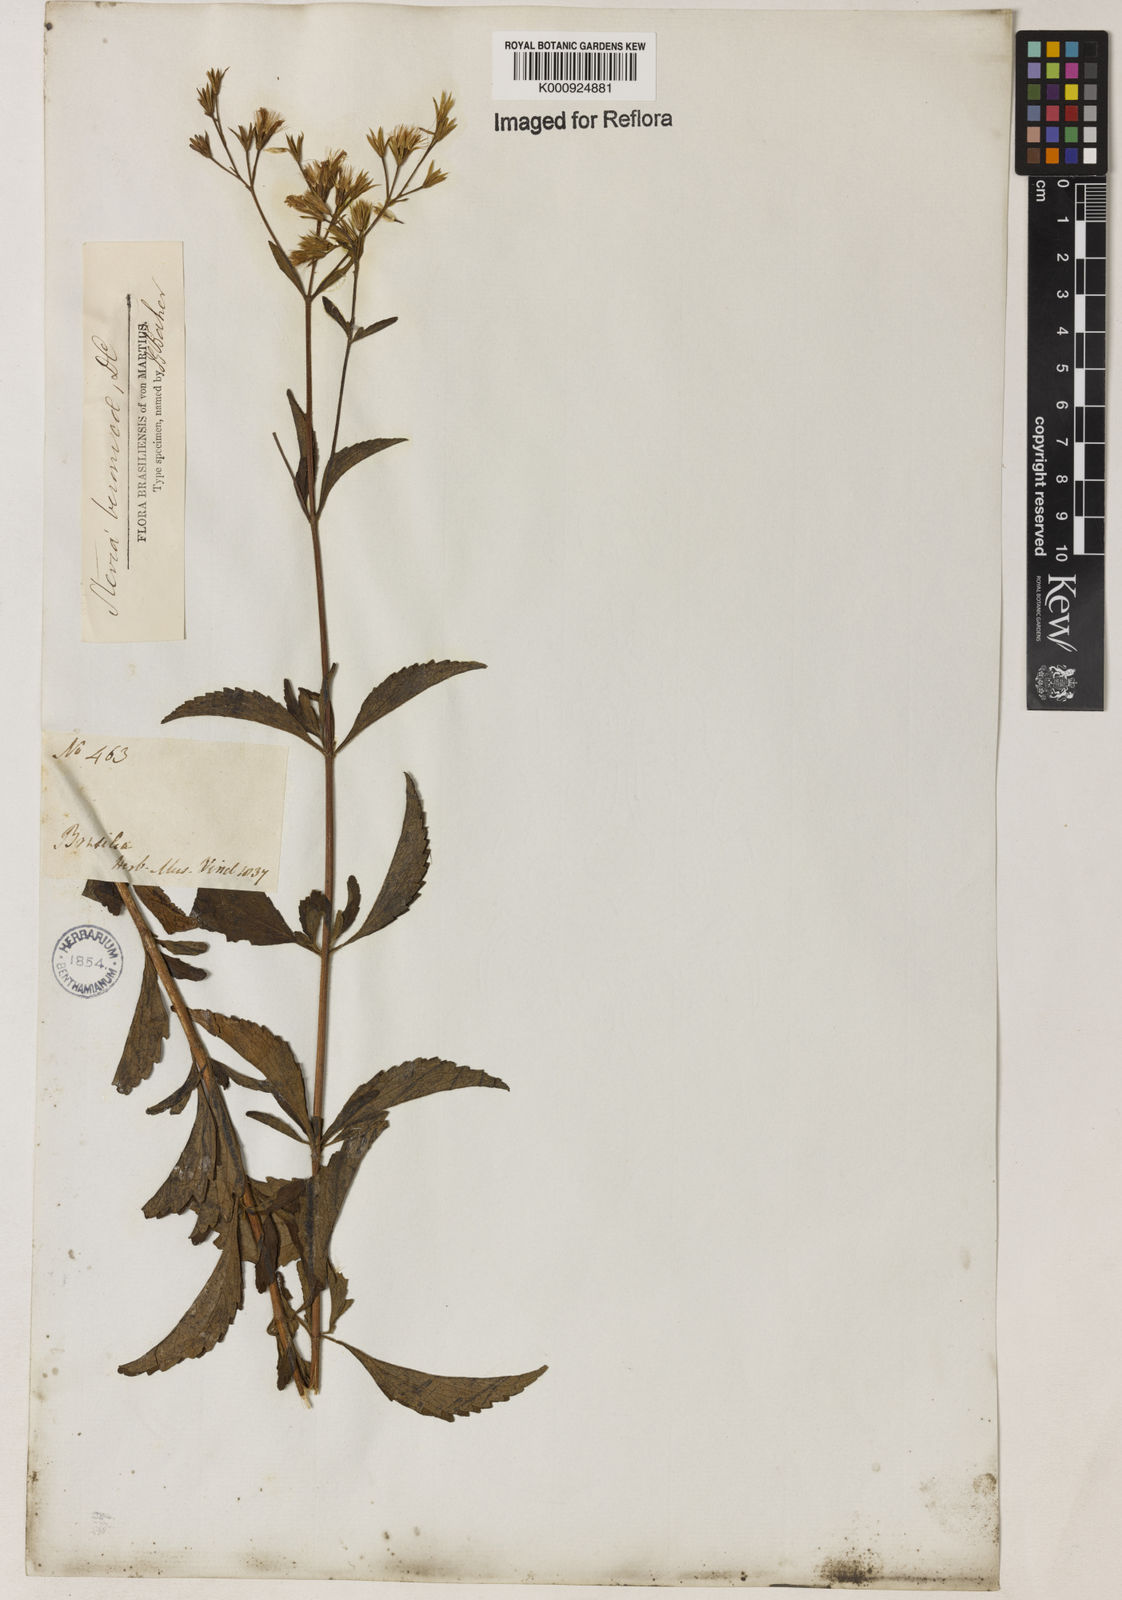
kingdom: Plantae
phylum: Tracheophyta
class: Magnoliopsida
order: Asterales
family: Asteraceae
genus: Stevia
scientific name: Stevia veronicae
